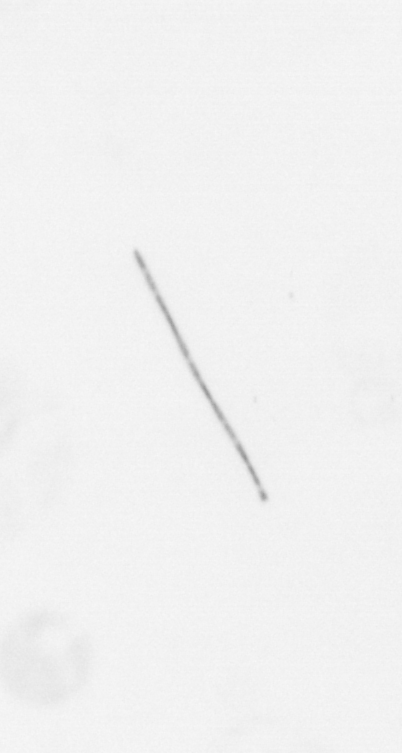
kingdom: Chromista
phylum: Ochrophyta
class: Bacillariophyceae
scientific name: Bacillariophyceae
